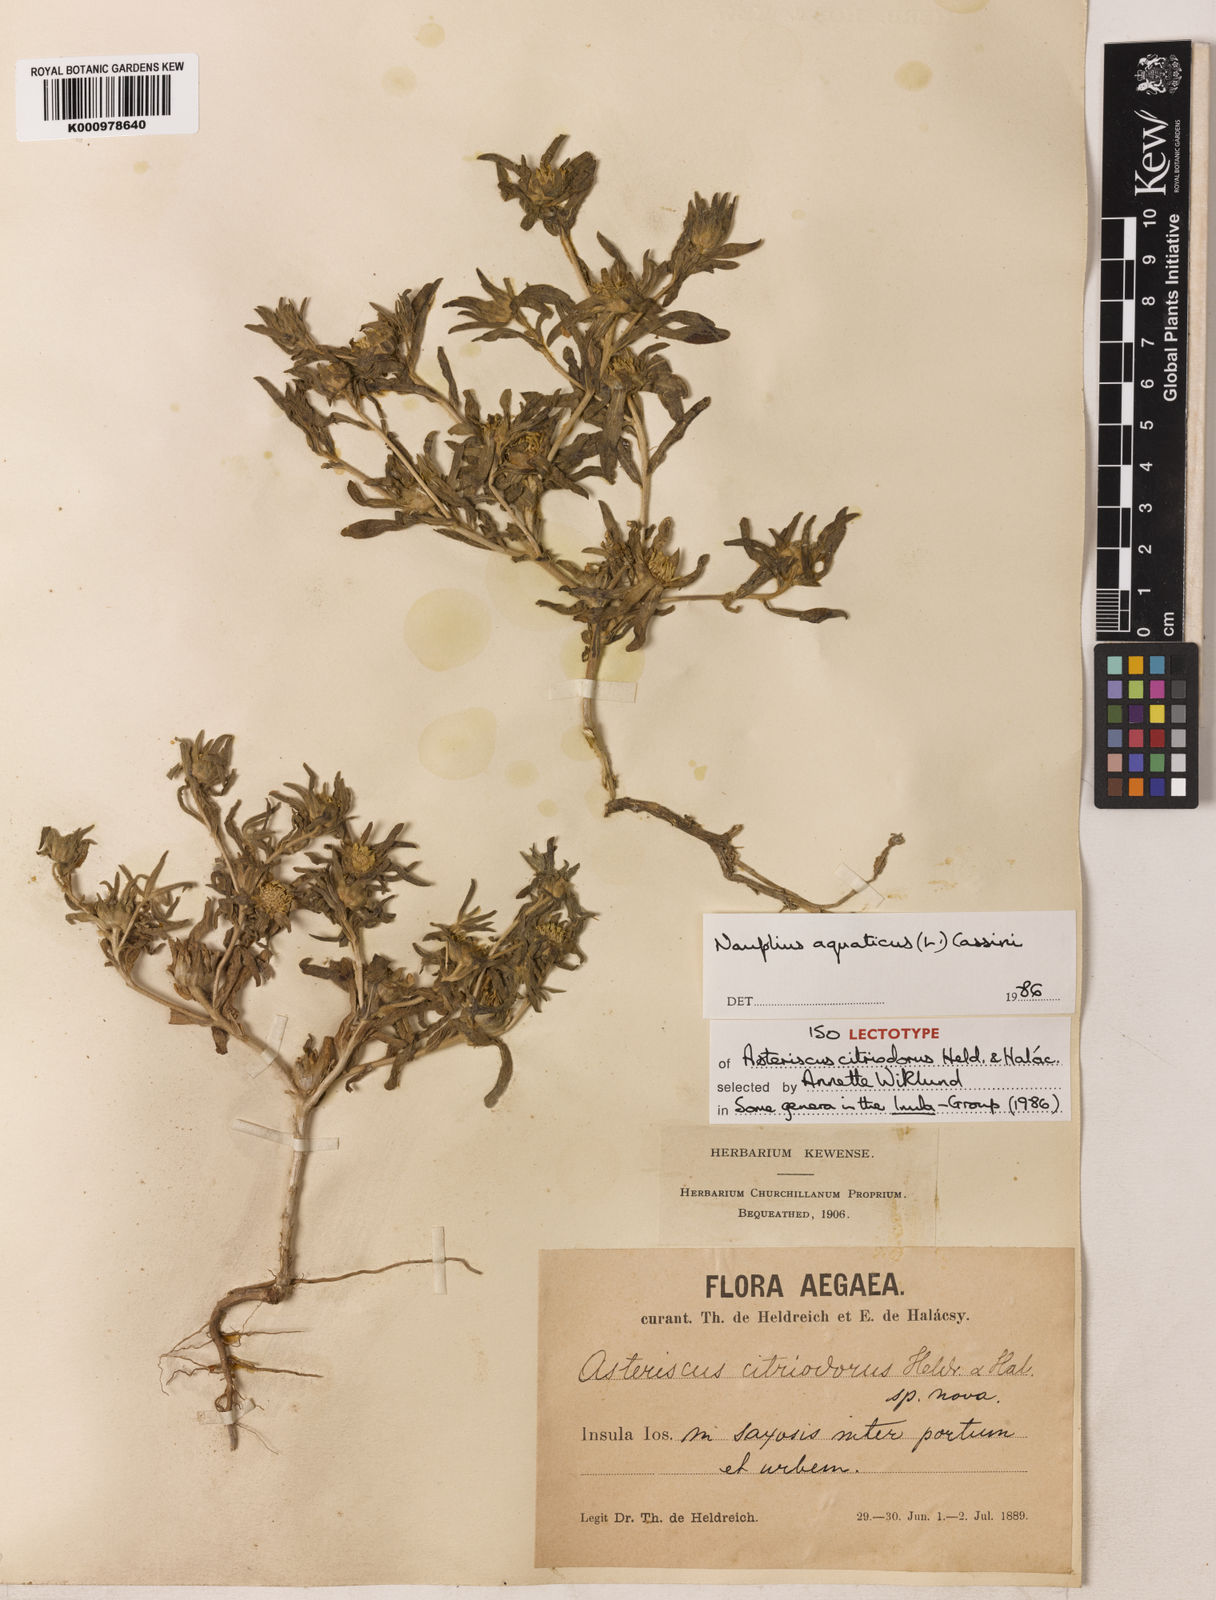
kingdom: Plantae
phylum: Tracheophyta
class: Magnoliopsida
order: Asterales
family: Asteraceae
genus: Asteriscus
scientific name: Asteriscus aquaticus
